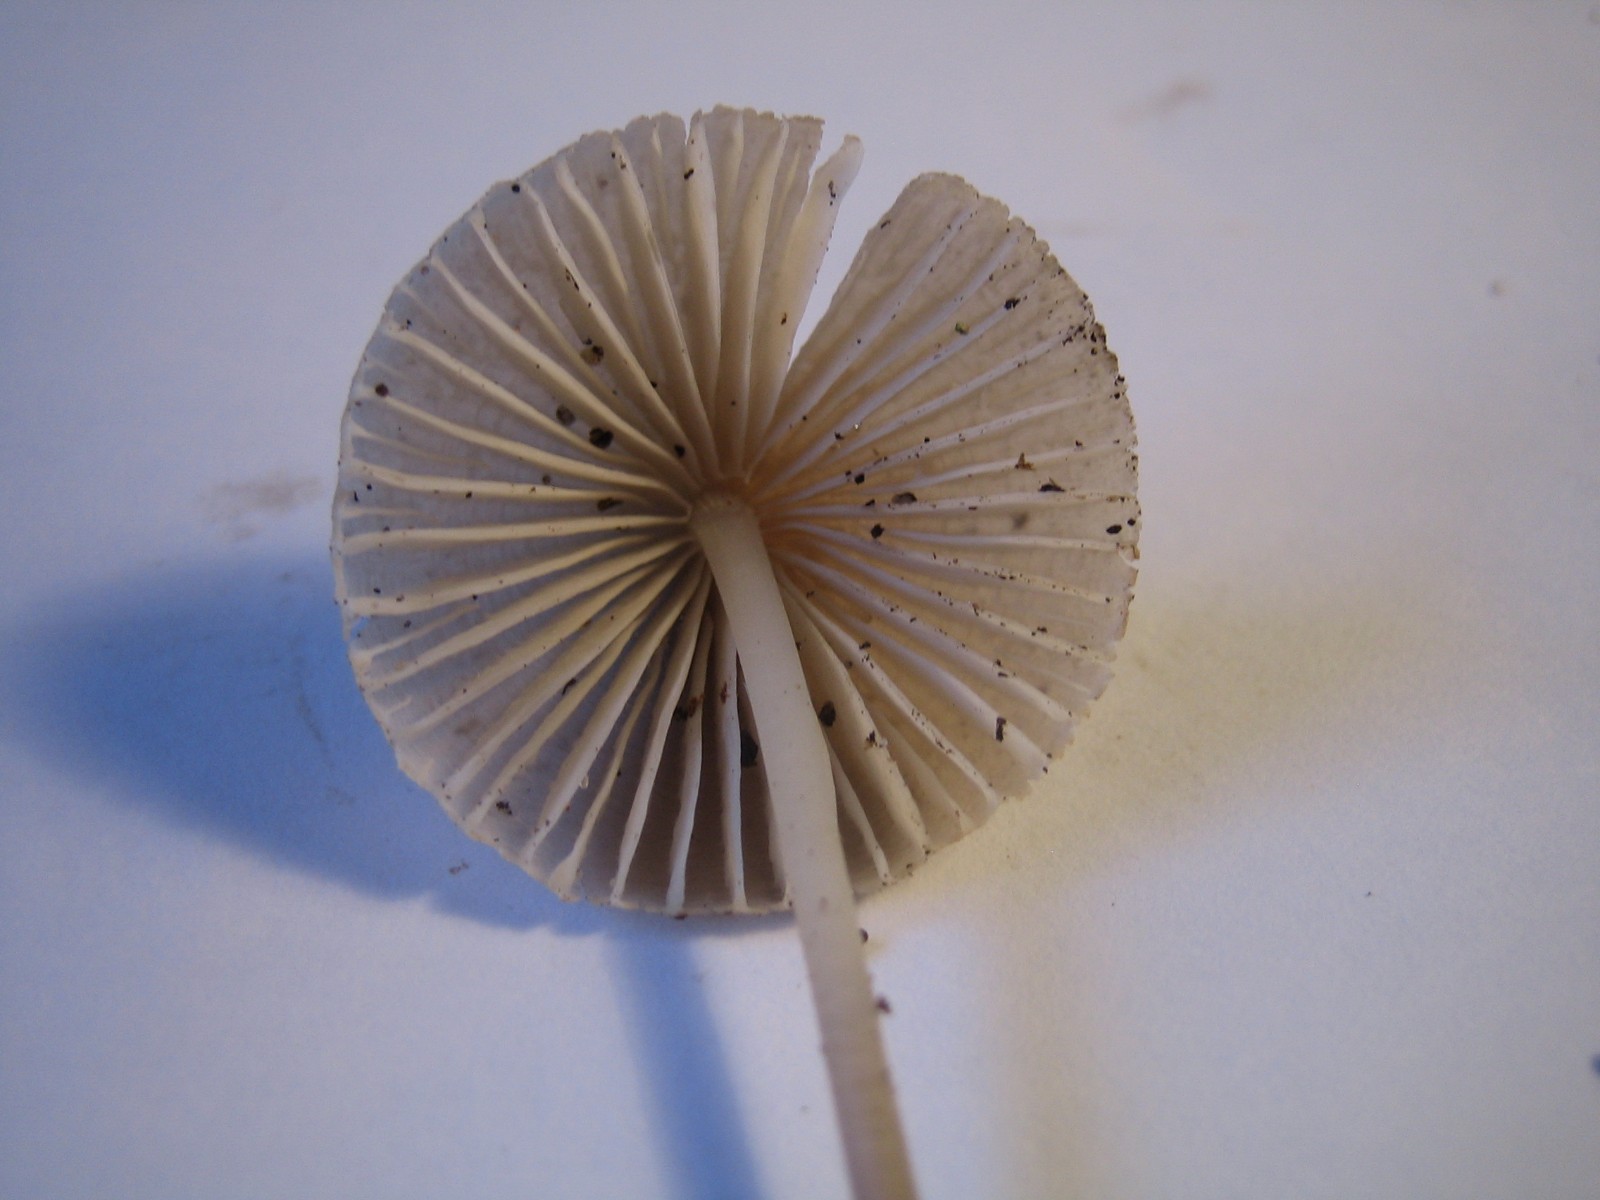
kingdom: Fungi
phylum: Basidiomycota
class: Agaricomycetes
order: Agaricales
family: Mycenaceae
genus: Mycena
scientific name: Mycena leptocephala
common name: klor-huesvamp
